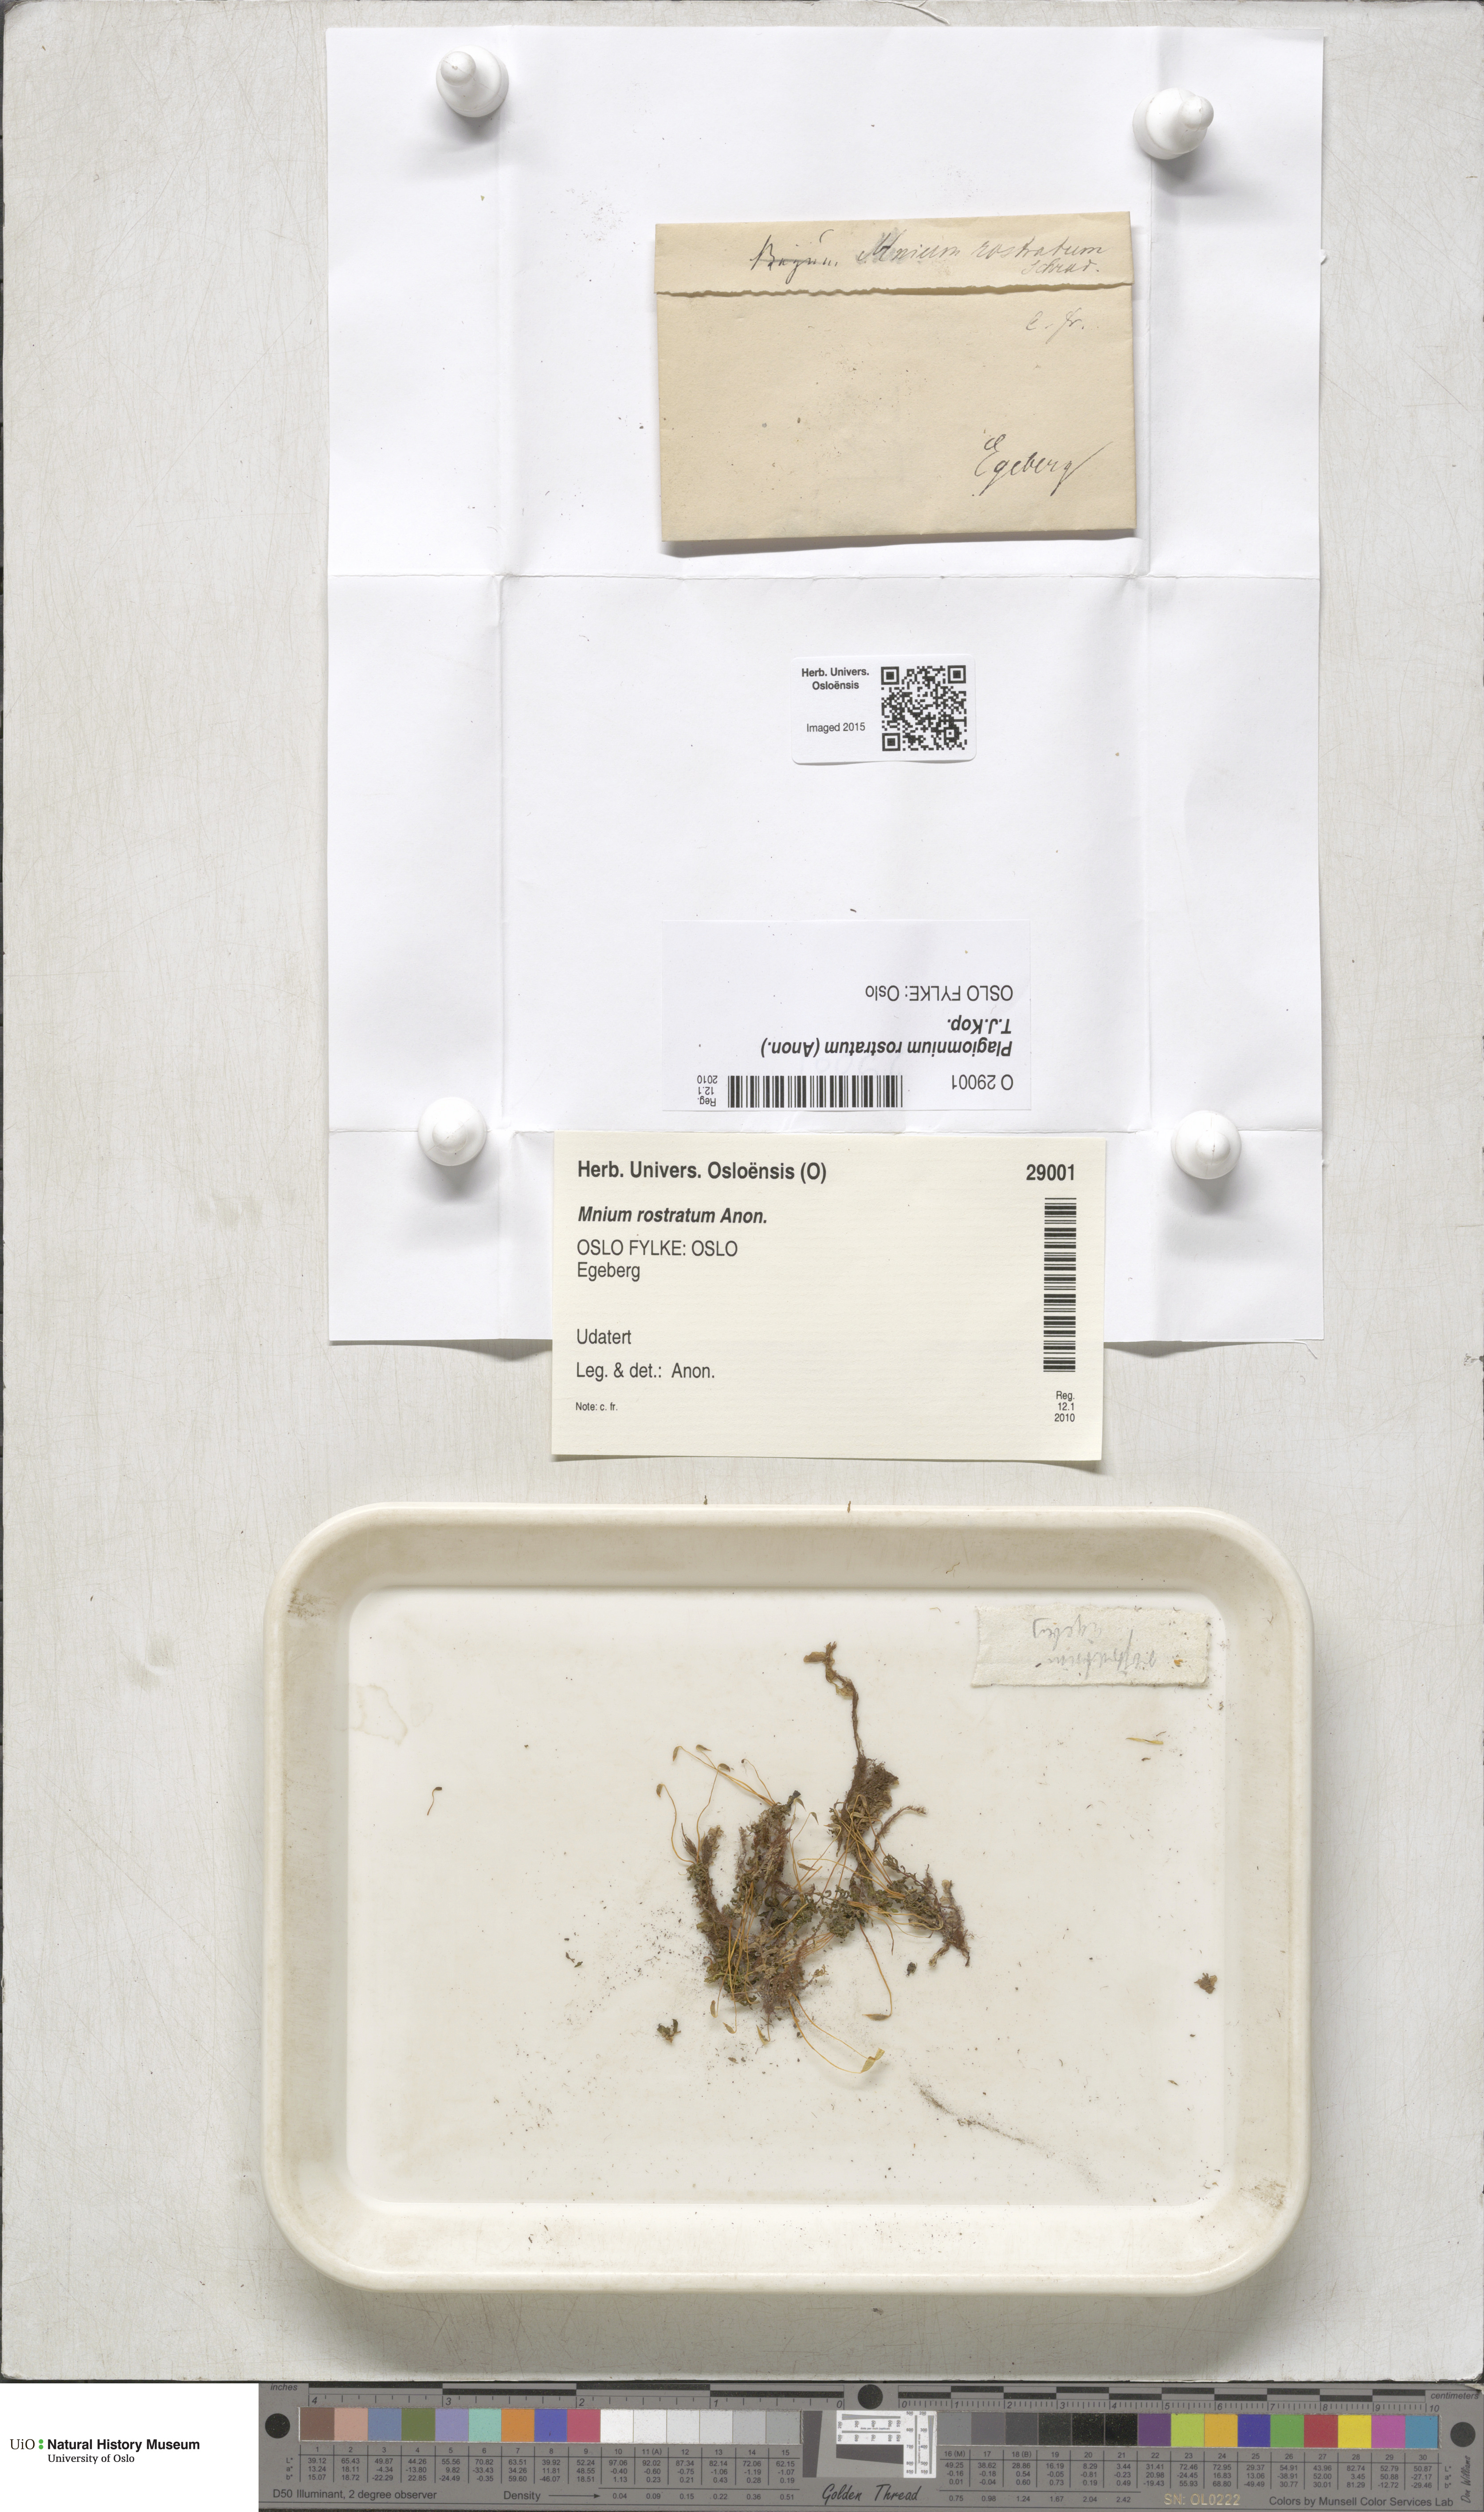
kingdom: Plantae
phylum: Bryophyta
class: Bryopsida
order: Bryales
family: Mniaceae
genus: Plagiomnium
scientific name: Plagiomnium rostratum
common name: Long-beaked leafy moss
